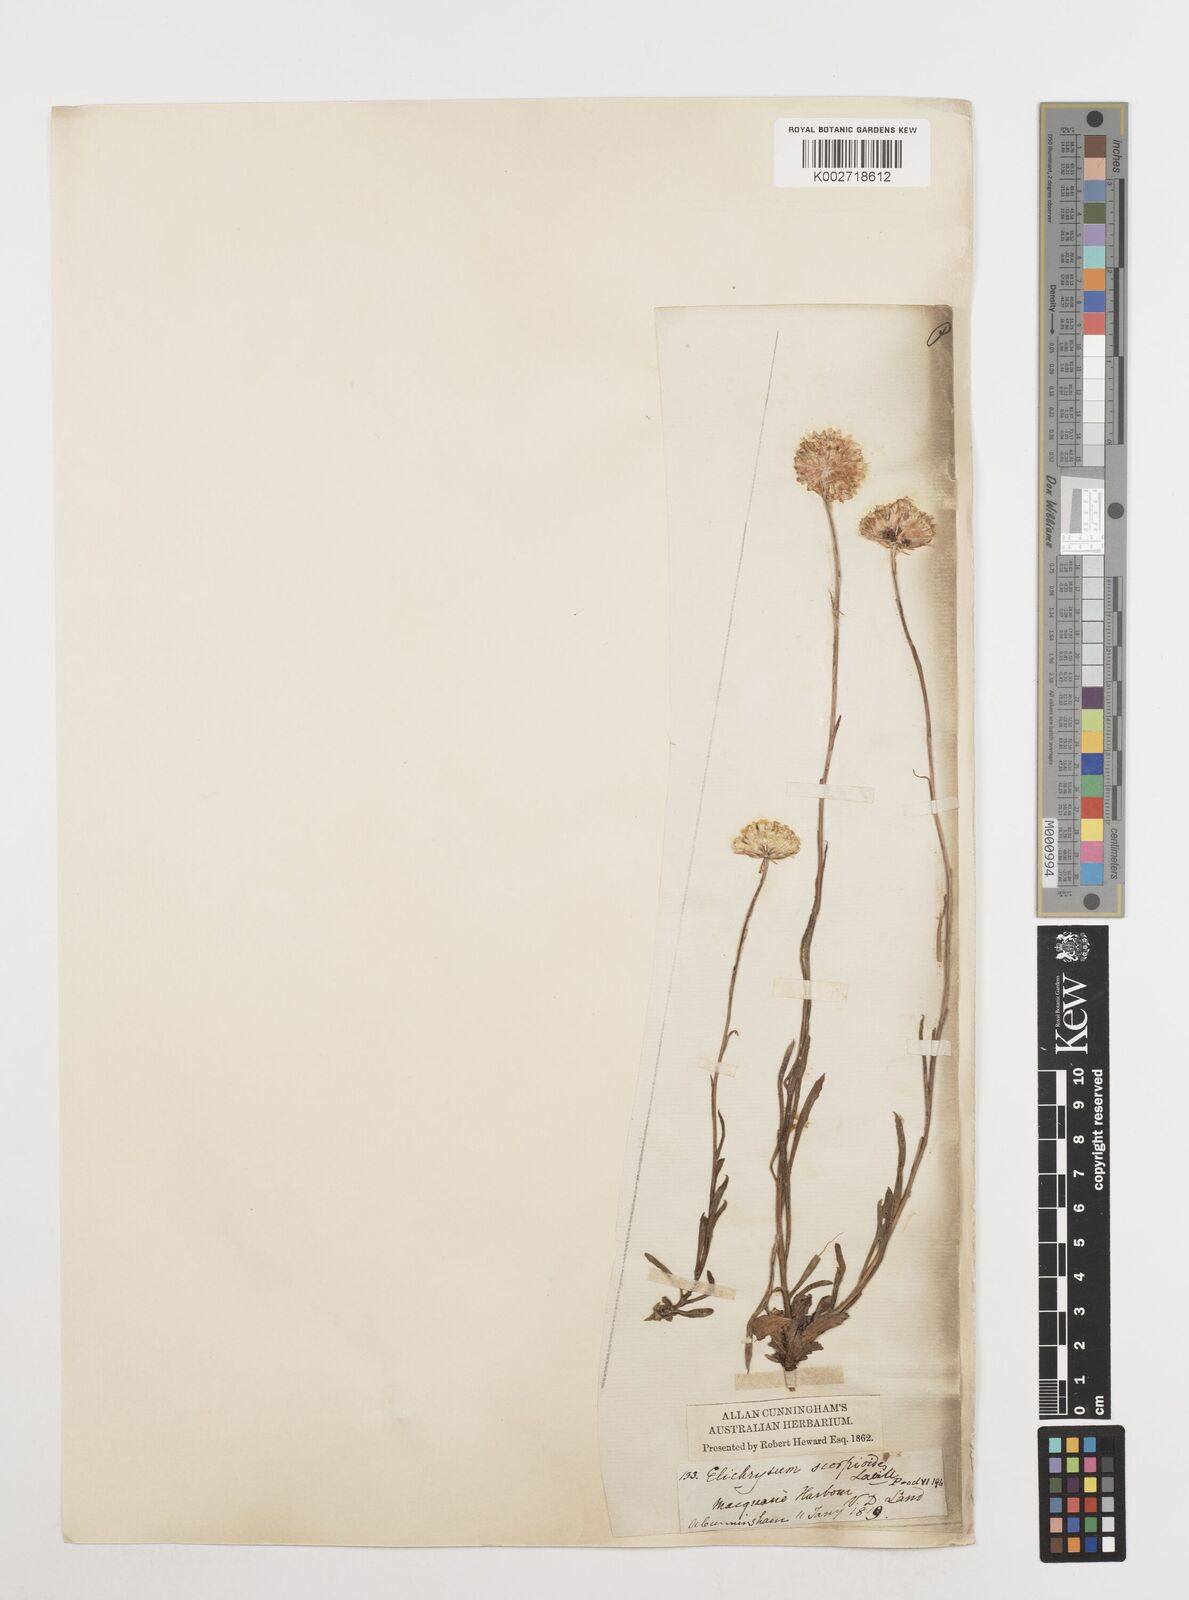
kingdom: Plantae
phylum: Tracheophyta
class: Magnoliopsida
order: Asterales
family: Asteraceae
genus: Coronidium
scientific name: Coronidium scorpioides
